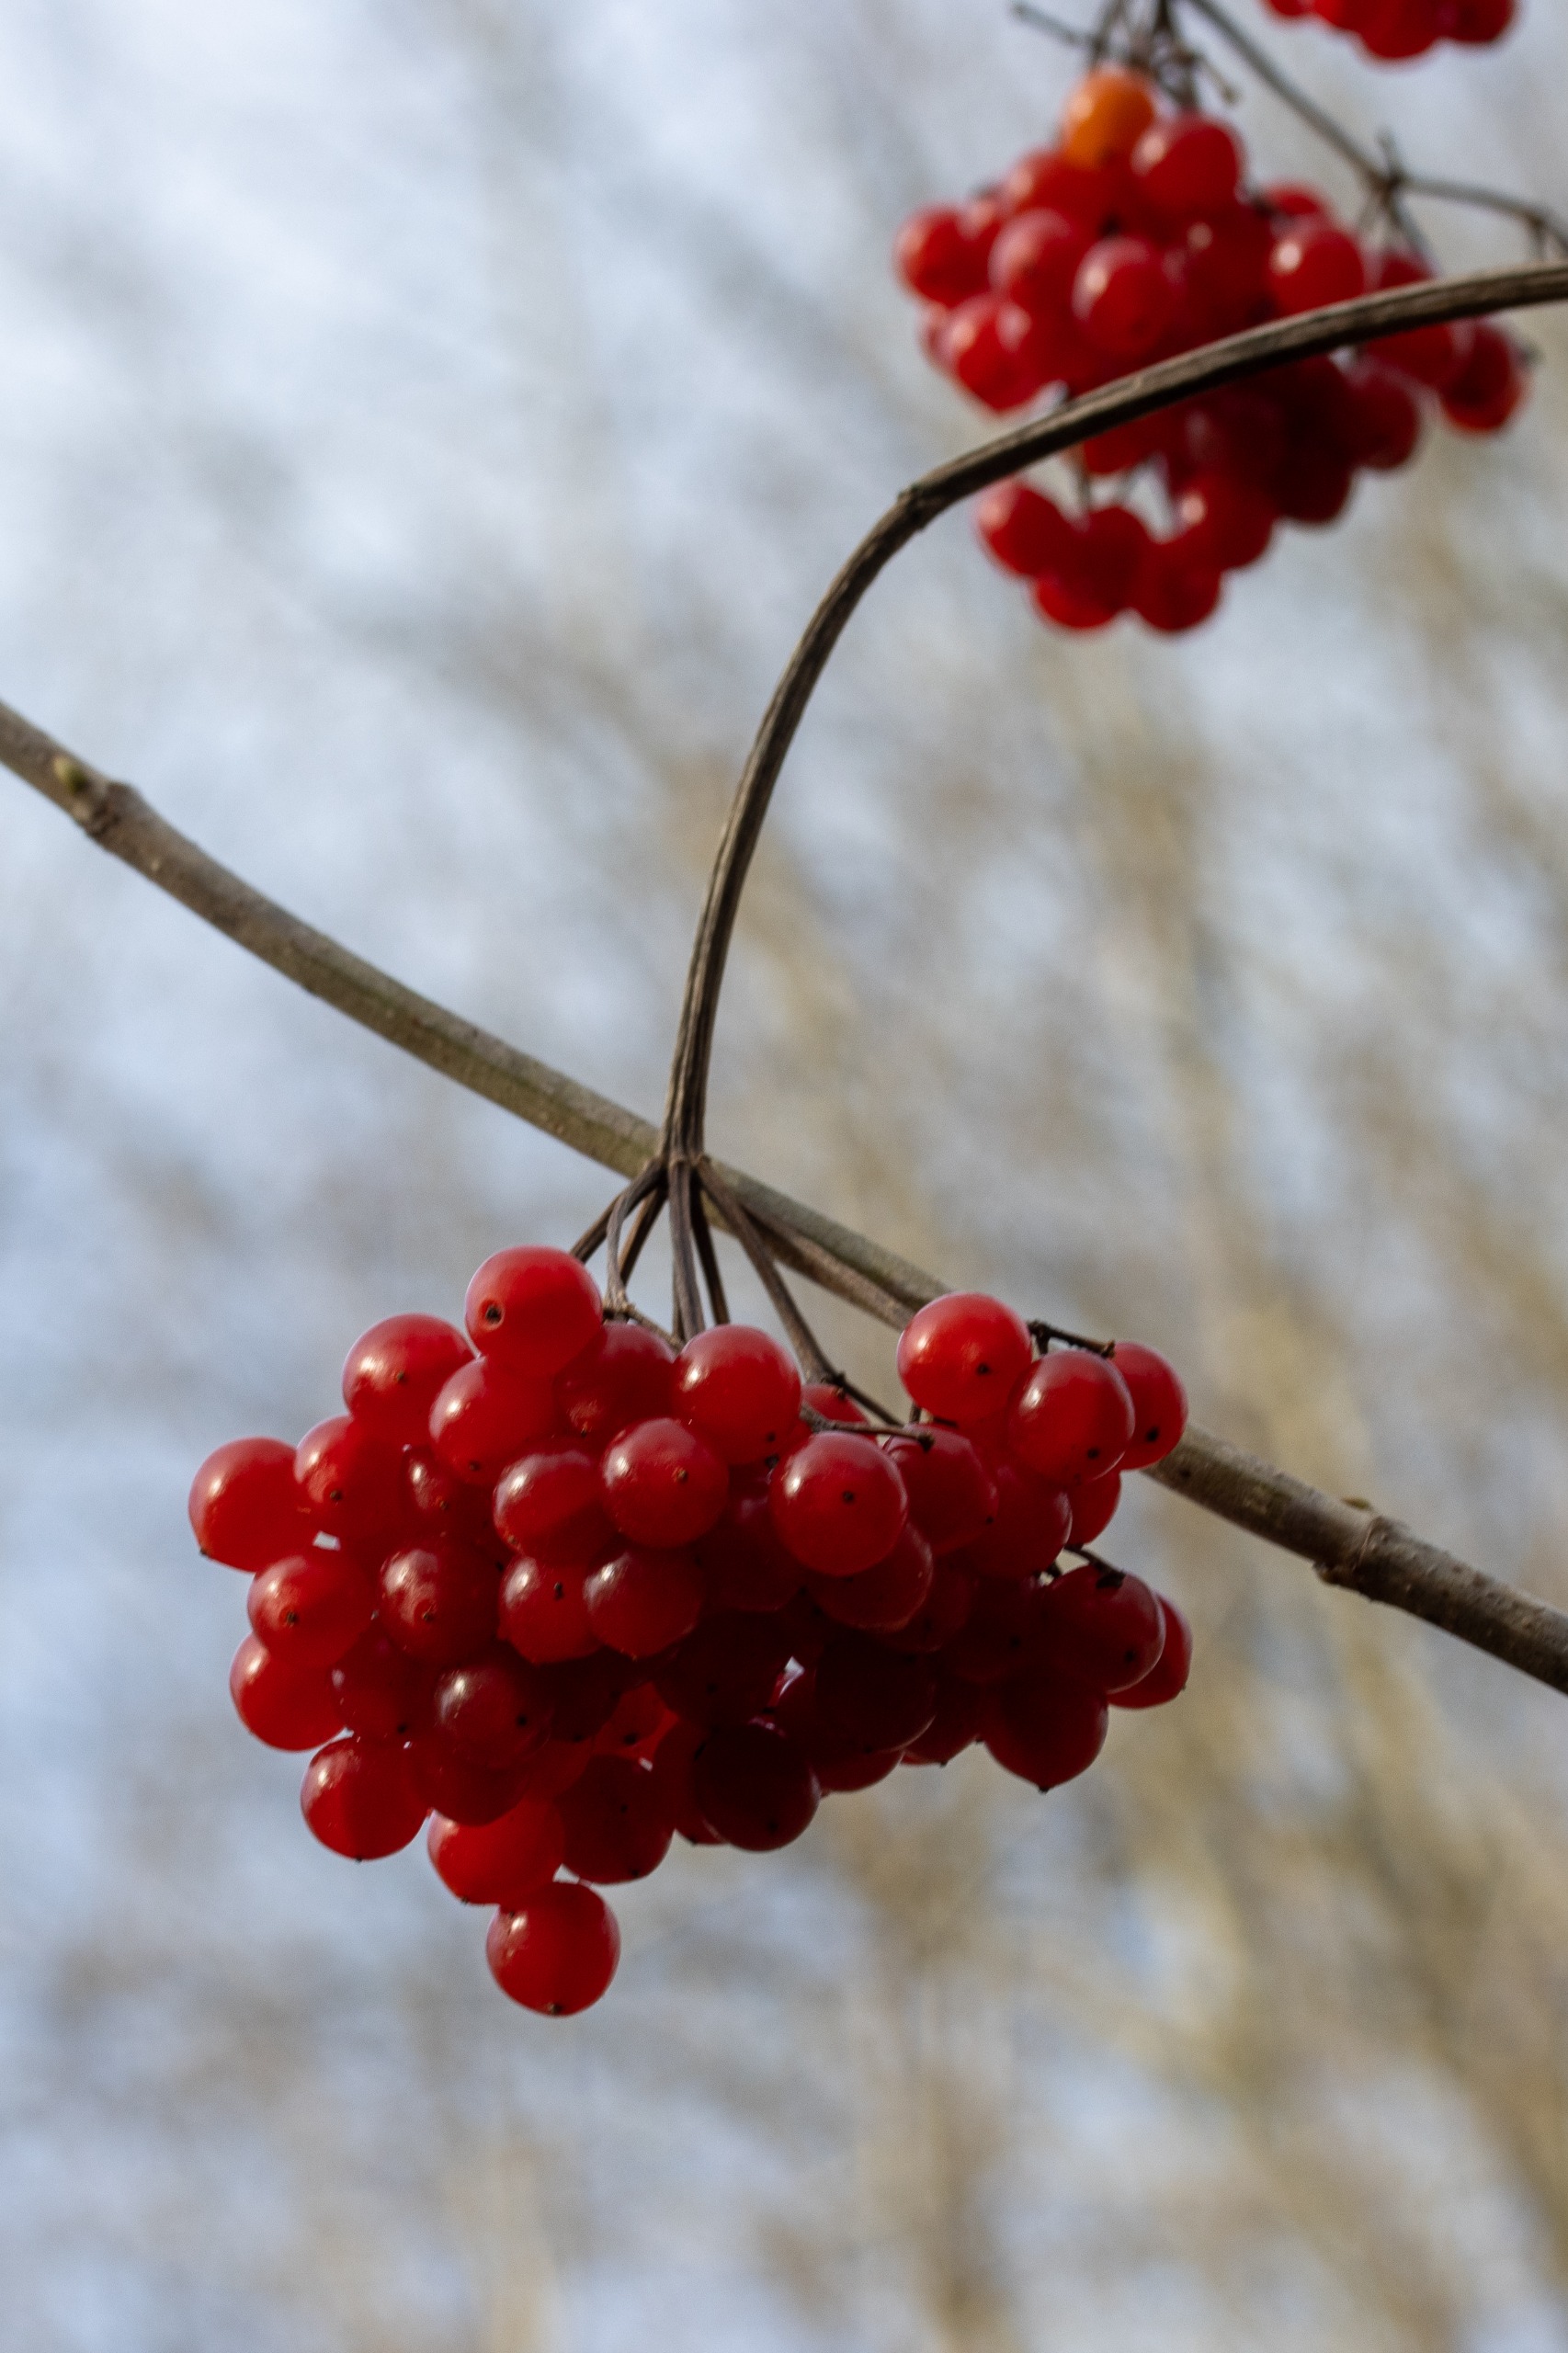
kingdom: Plantae
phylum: Tracheophyta
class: Magnoliopsida
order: Dipsacales
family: Viburnaceae
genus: Viburnum
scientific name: Viburnum opulus
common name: Kvalkved
